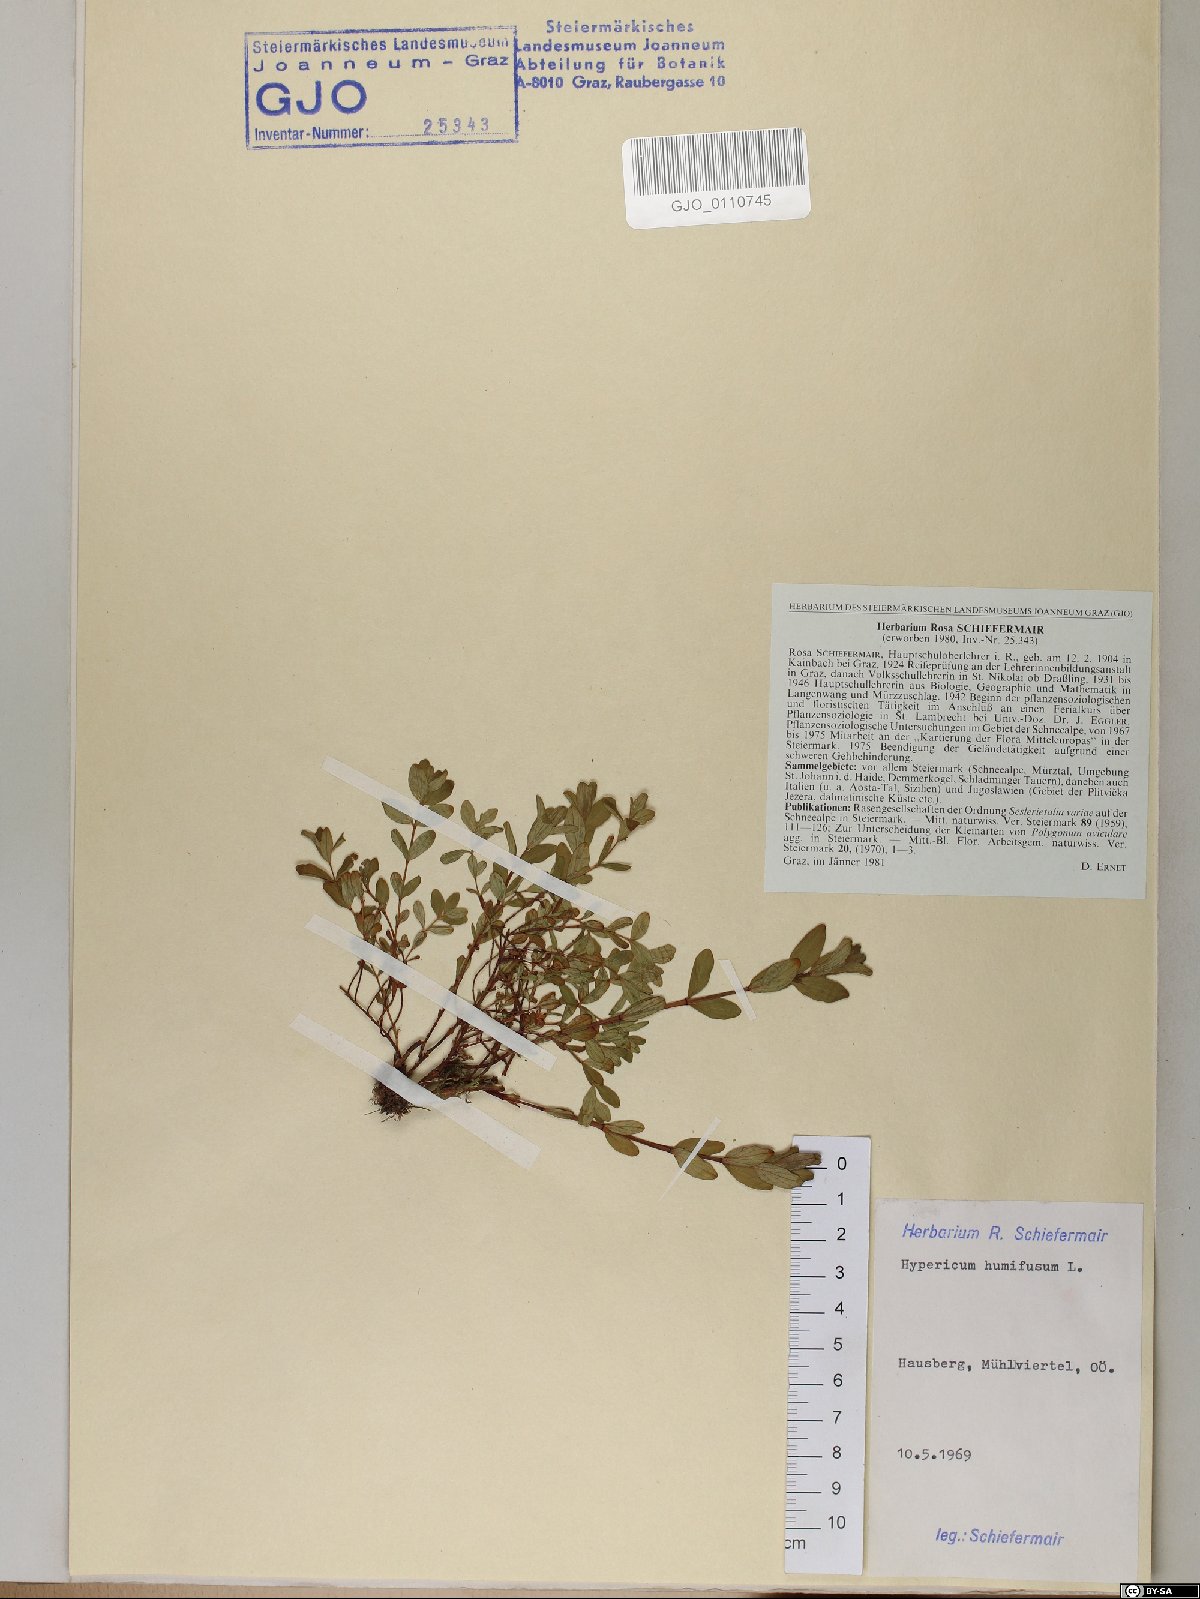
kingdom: Plantae
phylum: Tracheophyta
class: Magnoliopsida
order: Malpighiales
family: Hypericaceae
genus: Hypericum
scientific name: Hypericum humifusum
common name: Trailing st. john's-wort
